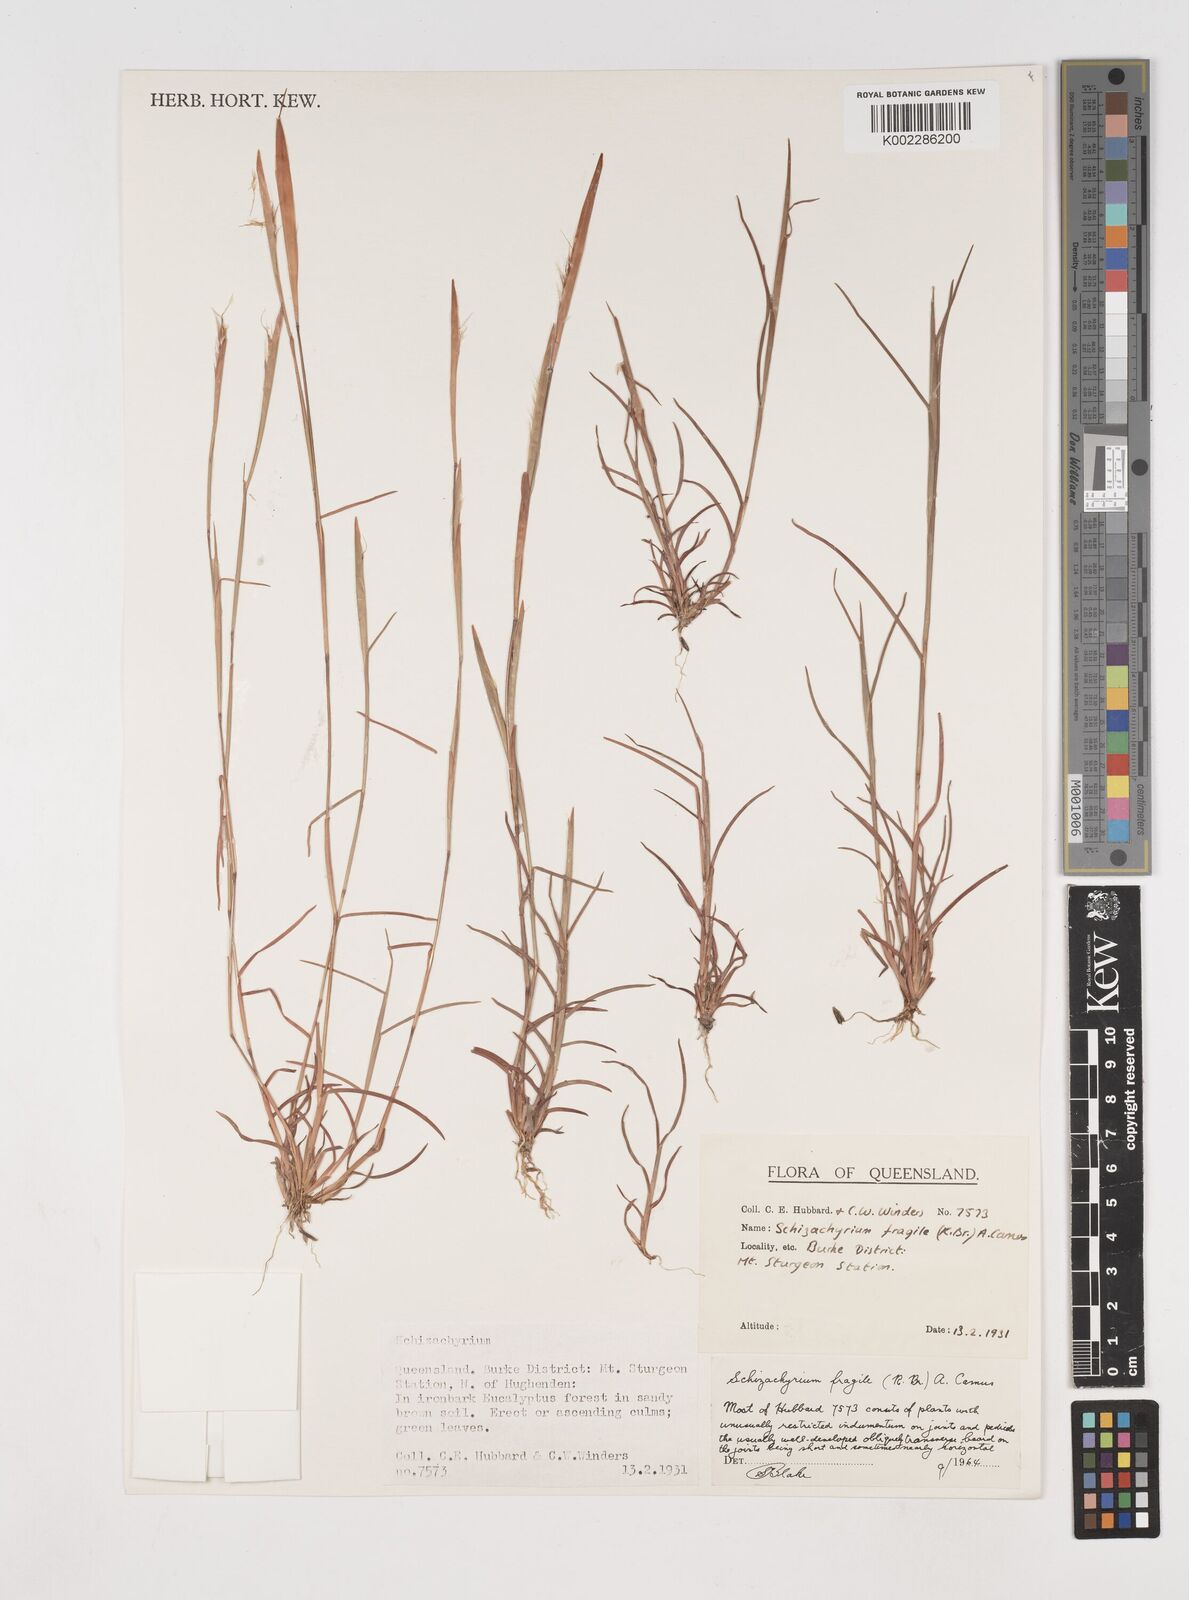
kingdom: Plantae
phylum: Tracheophyta
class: Liliopsida
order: Poales
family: Poaceae
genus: Schizachyrium
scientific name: Schizachyrium fragile
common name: Red spathe grass
